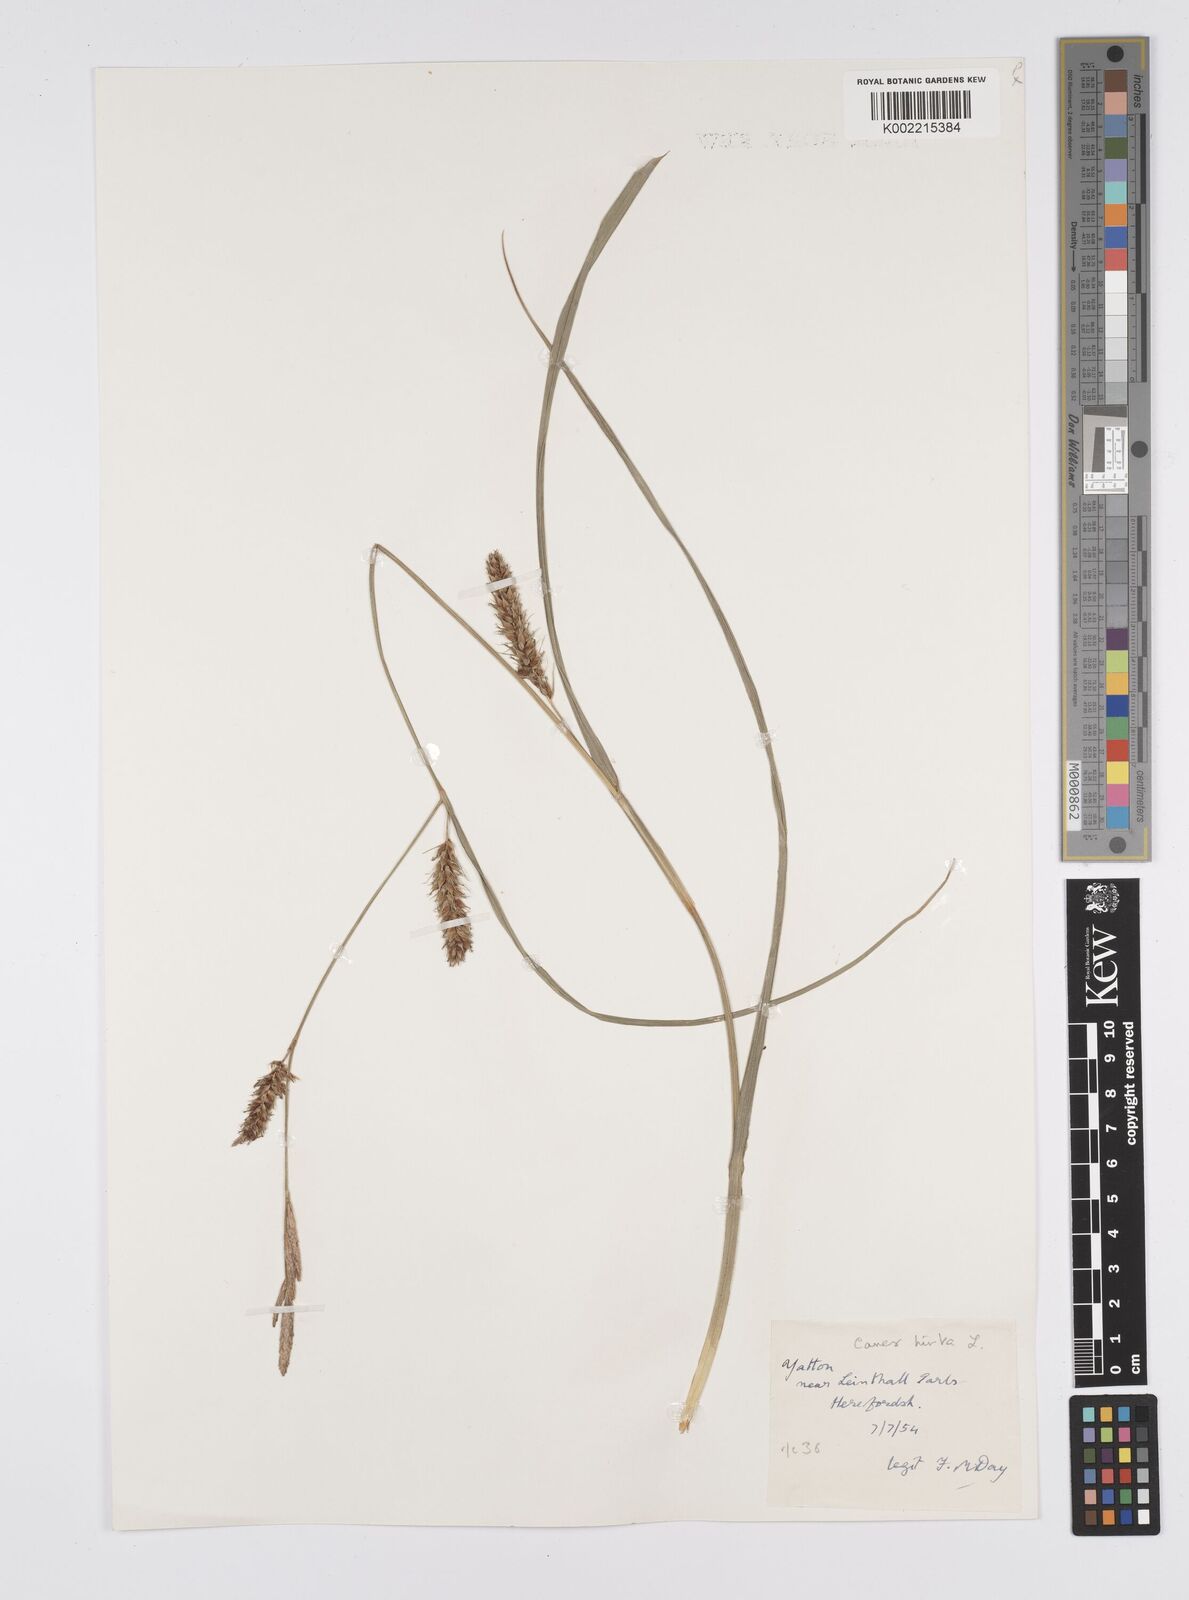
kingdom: Plantae
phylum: Tracheophyta
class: Liliopsida
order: Poales
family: Cyperaceae
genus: Carex
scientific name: Carex hirta
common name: Hairy sedge
